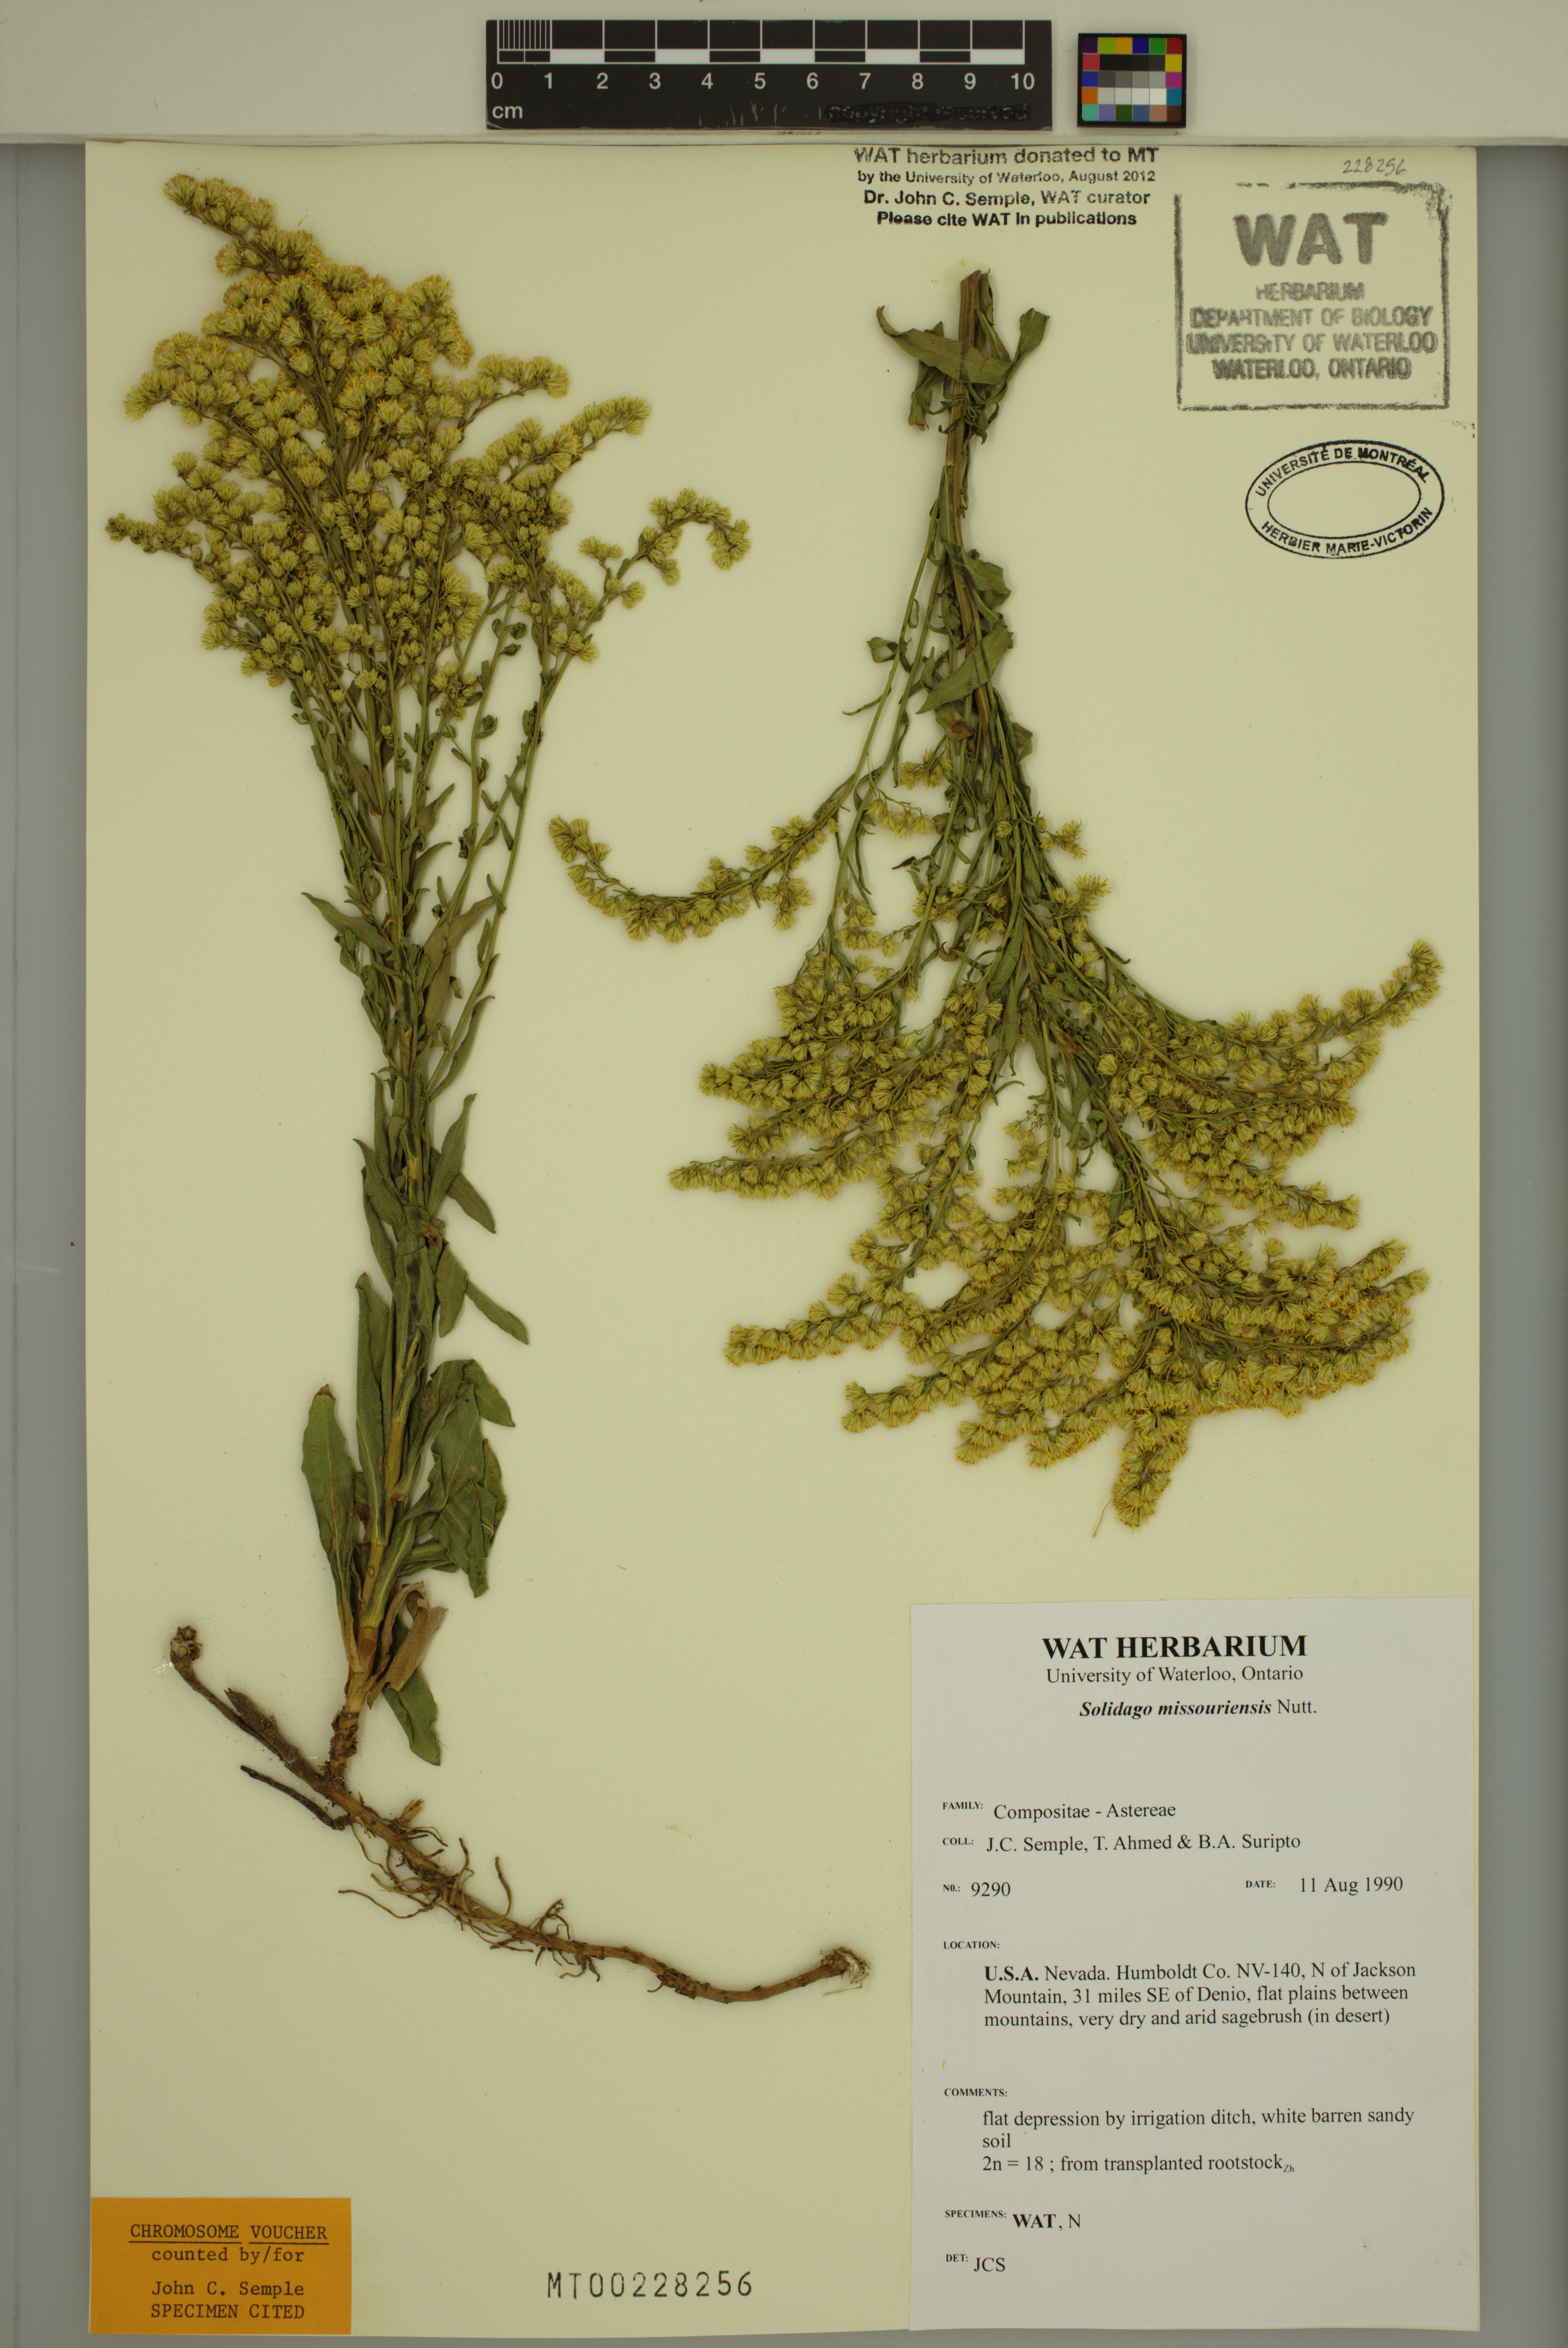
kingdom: Plantae
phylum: Tracheophyta
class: Magnoliopsida
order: Asterales
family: Asteraceae
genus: Solidago
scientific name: Solidago missouriensis
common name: Prairie goldenrod
